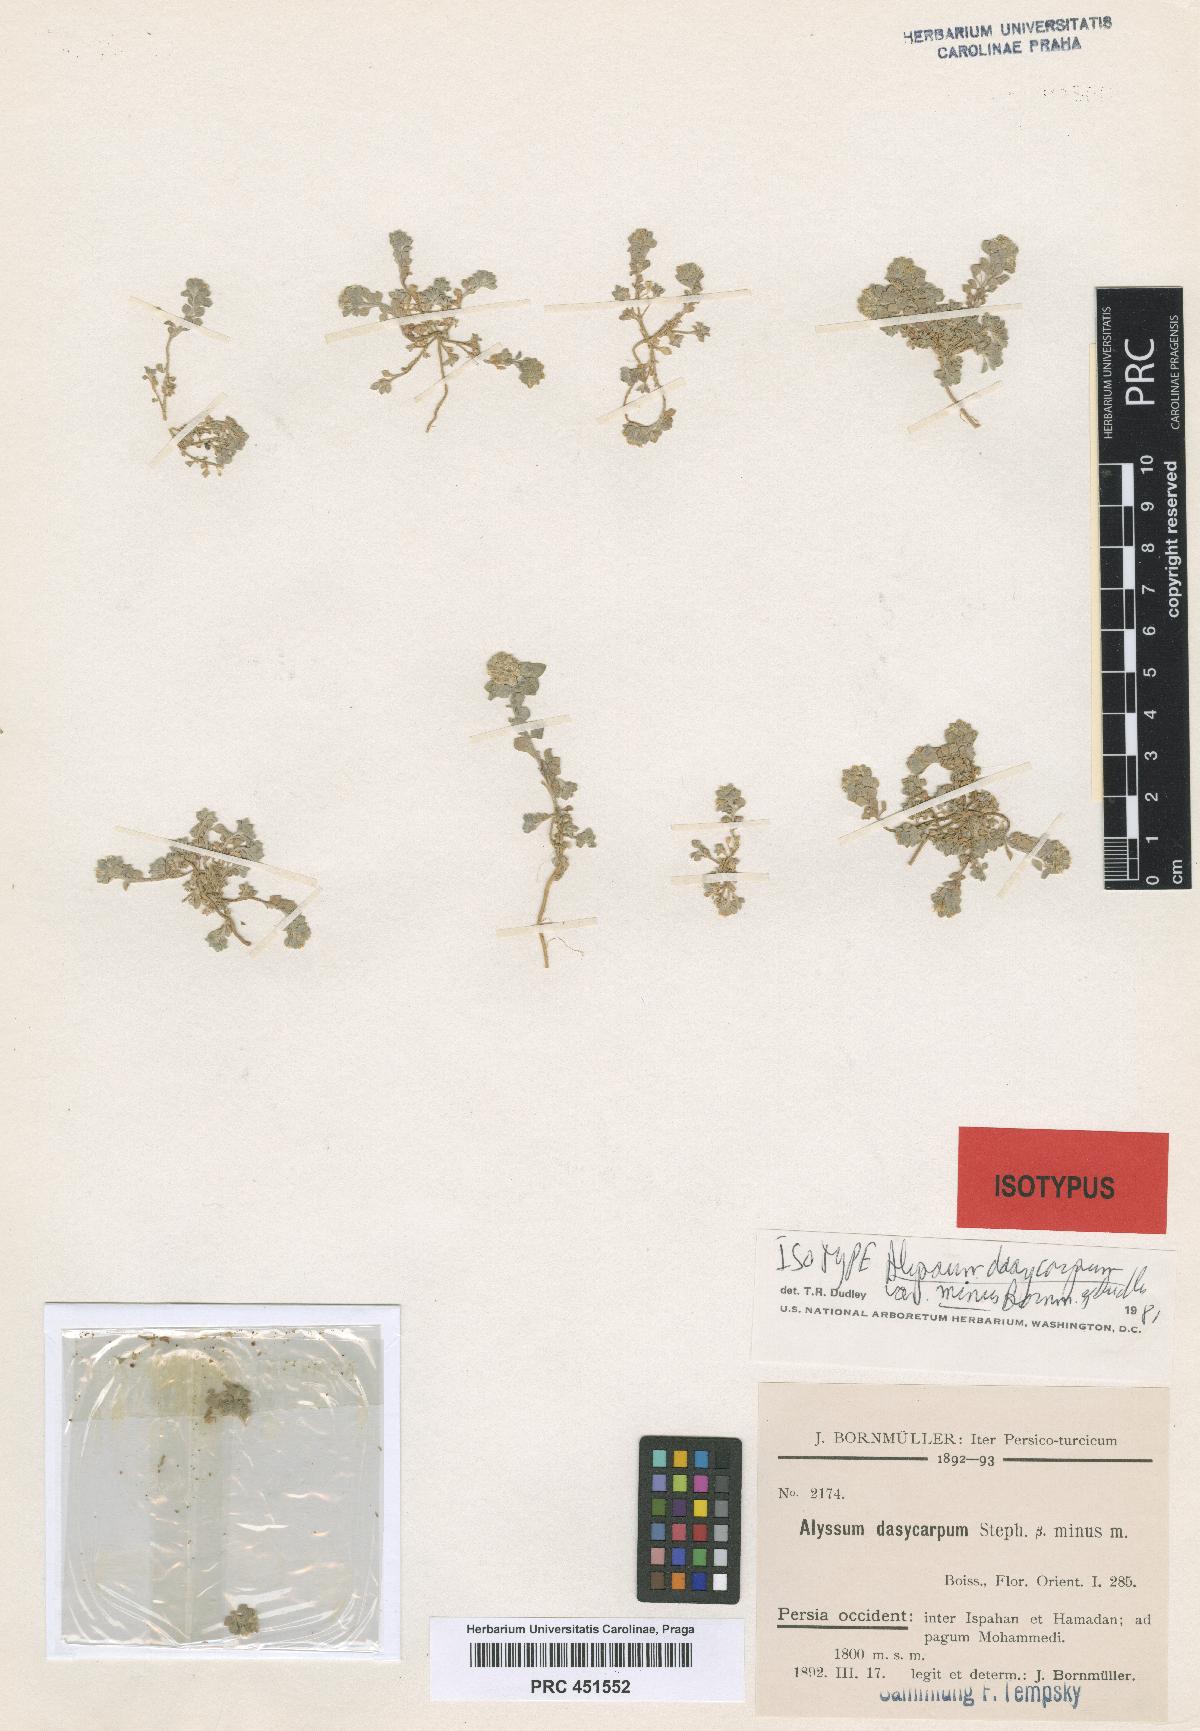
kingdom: Plantae
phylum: Tracheophyta
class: Magnoliopsida
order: Brassicales
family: Brassicaceae
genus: Alyssum
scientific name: Alyssum dasycarpum
